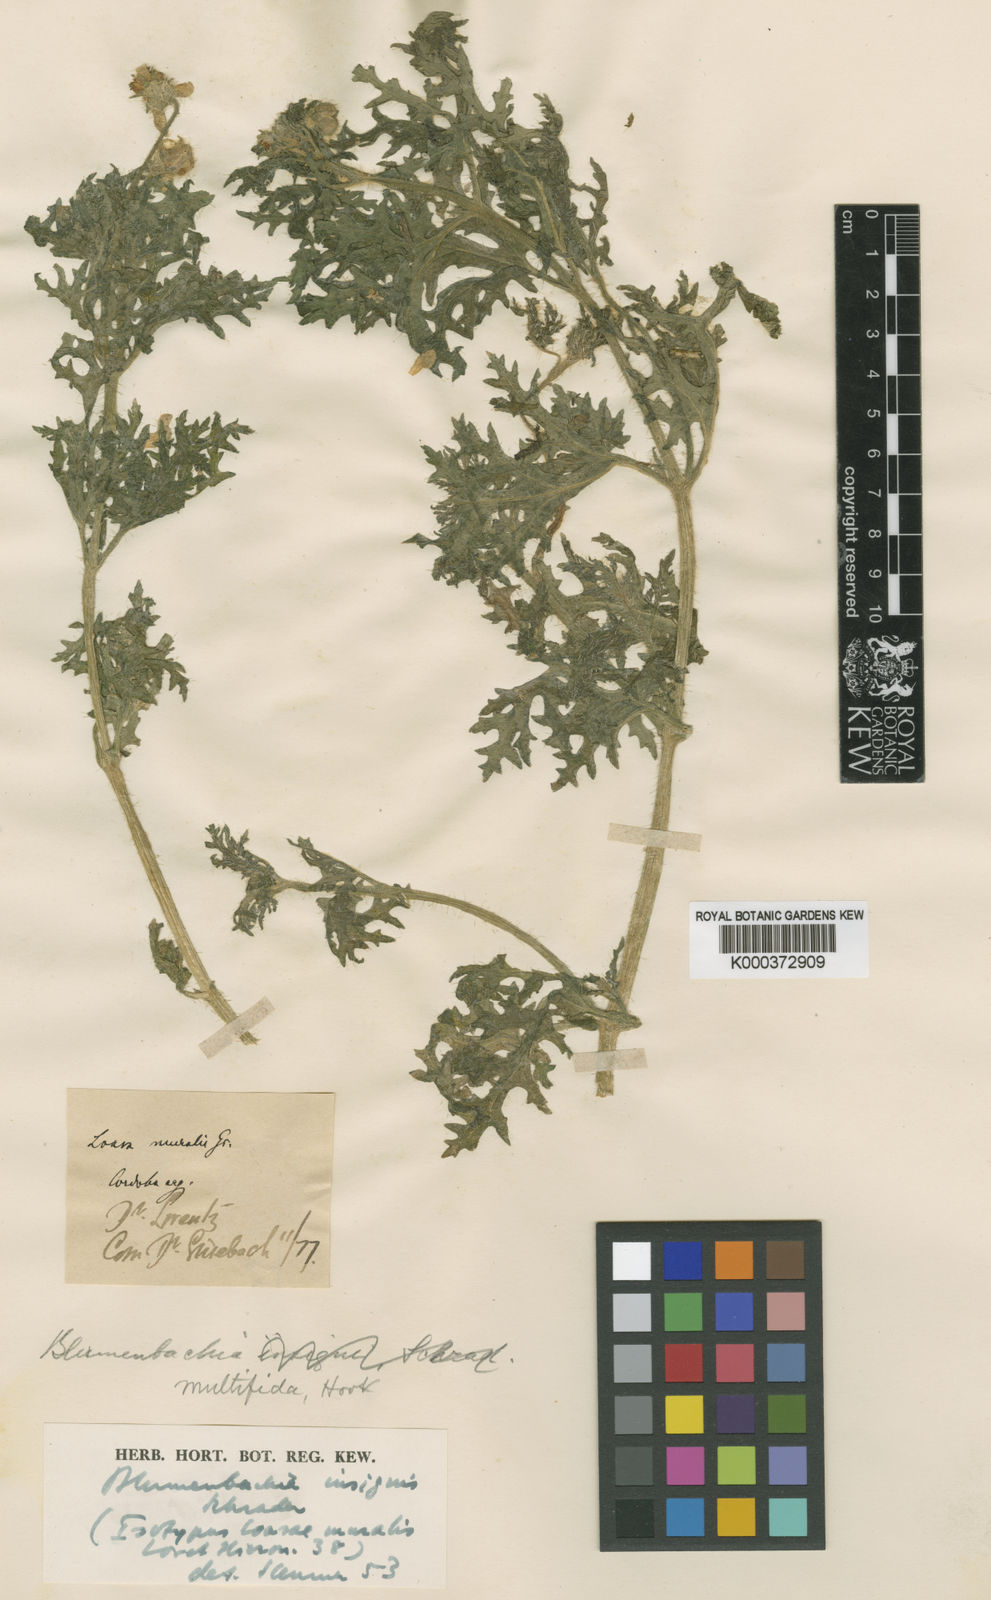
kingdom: Plantae
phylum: Tracheophyta
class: Magnoliopsida
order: Cornales
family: Loasaceae
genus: Blumenbachia
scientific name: Blumenbachia insignis
